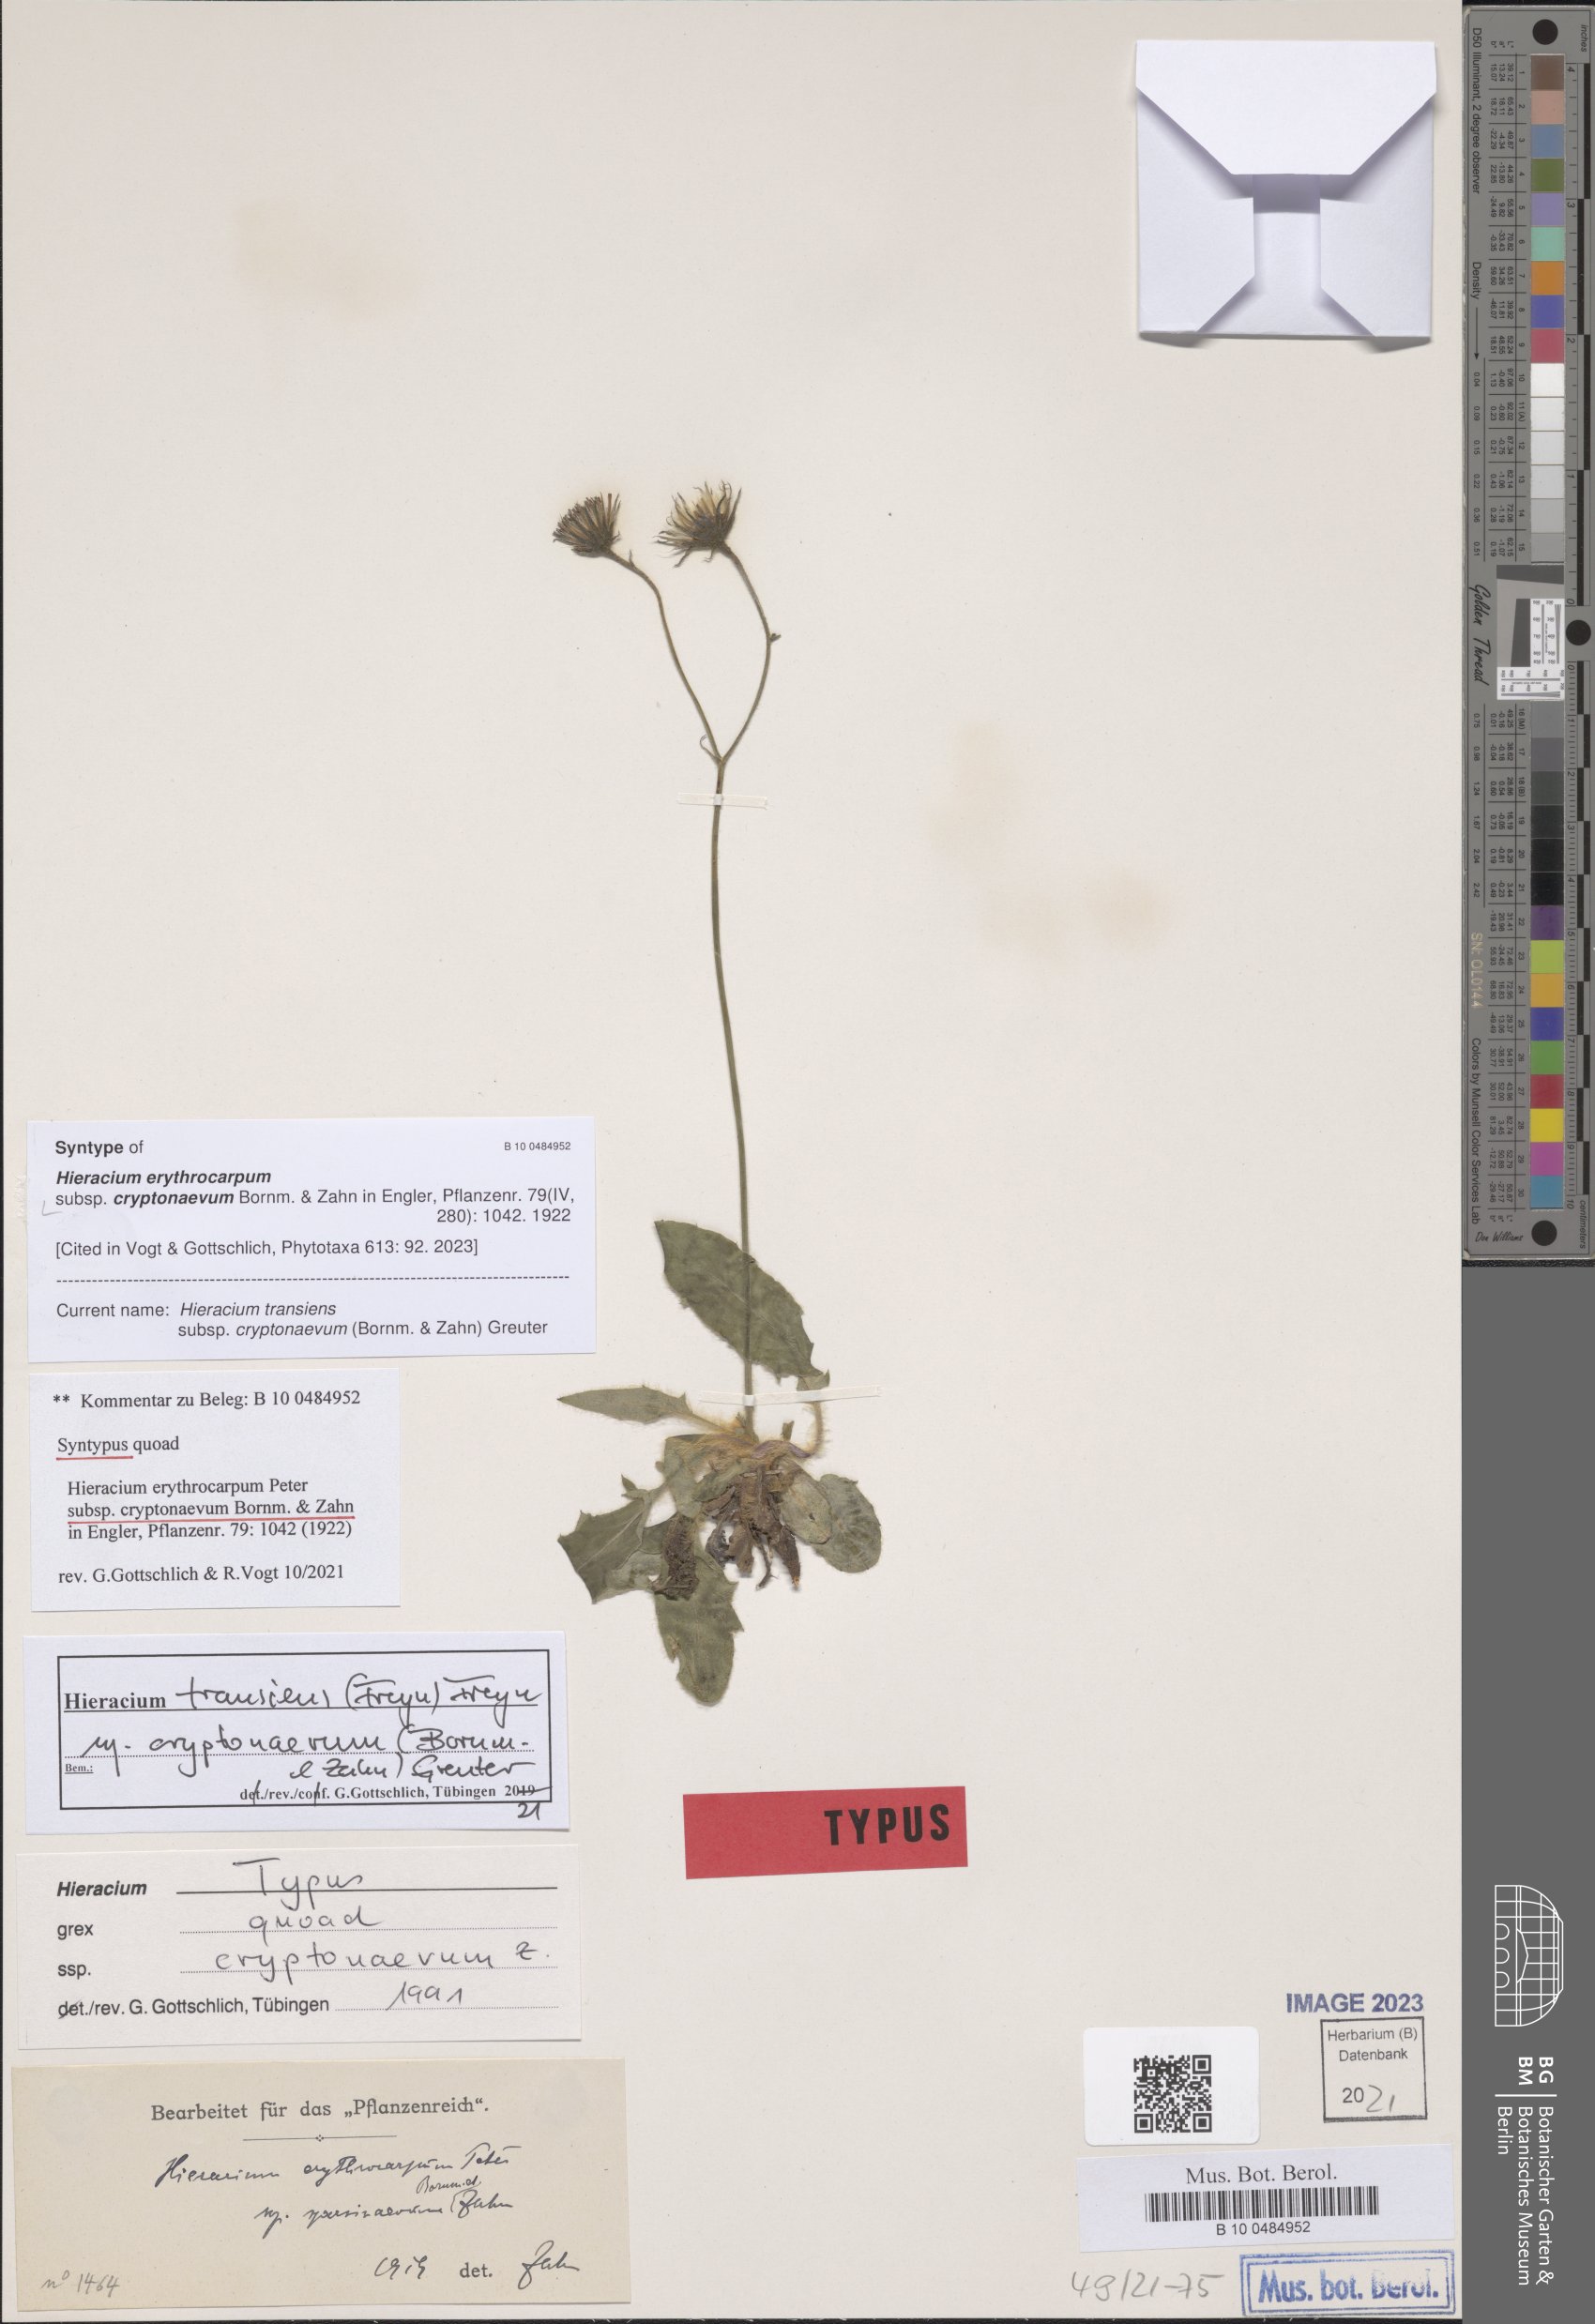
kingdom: Plantae
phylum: Tracheophyta
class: Magnoliopsida
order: Asterales
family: Asteraceae
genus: Hieracium
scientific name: Hieracium transiens
